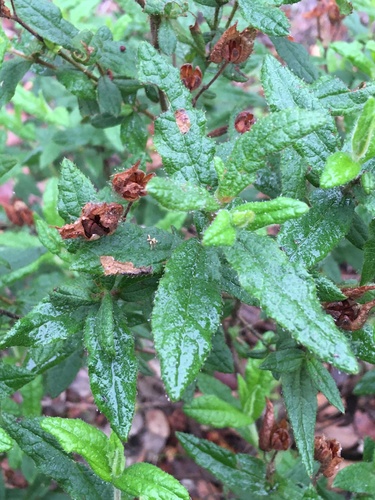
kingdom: Plantae
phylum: Tracheophyta
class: Magnoliopsida
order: Malvales
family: Cistaceae
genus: Cistus
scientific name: Cistus
